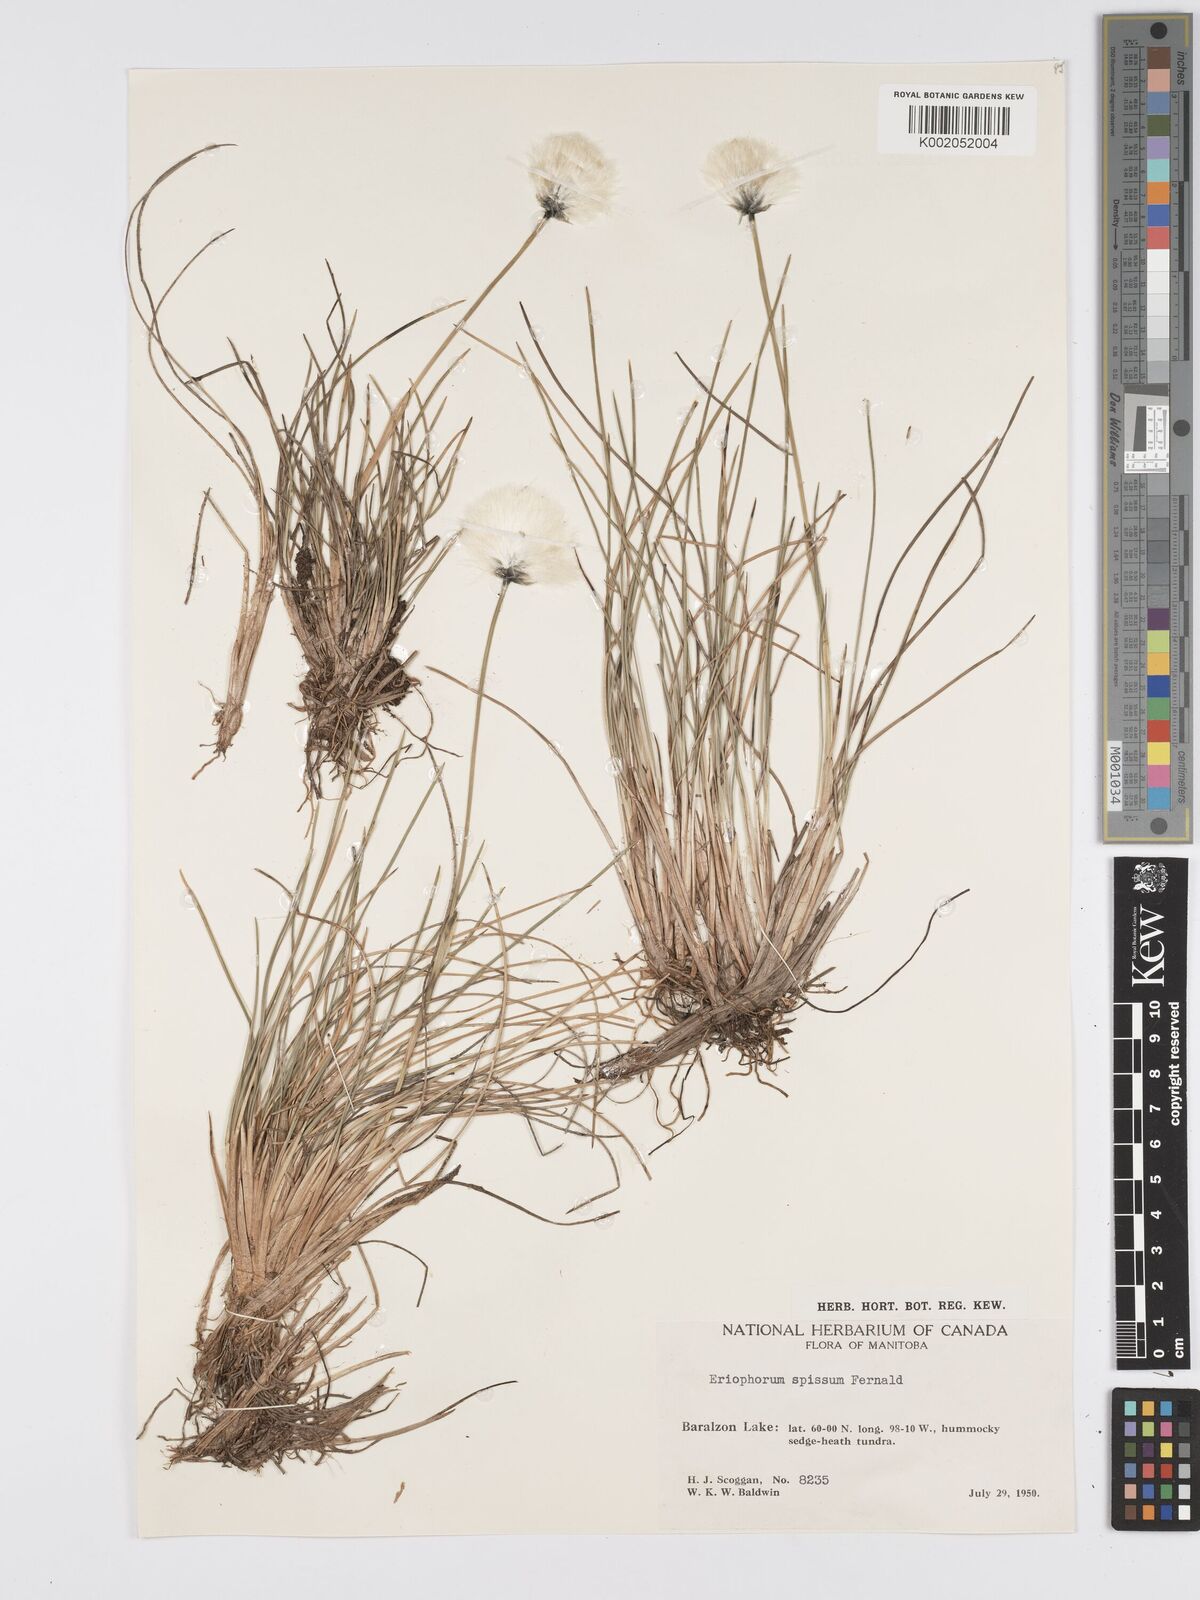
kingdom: Plantae
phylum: Tracheophyta
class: Liliopsida
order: Poales
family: Cyperaceae
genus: Eriophorum
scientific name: Eriophorum vaginatum
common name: Hare's-tail cottongrass
